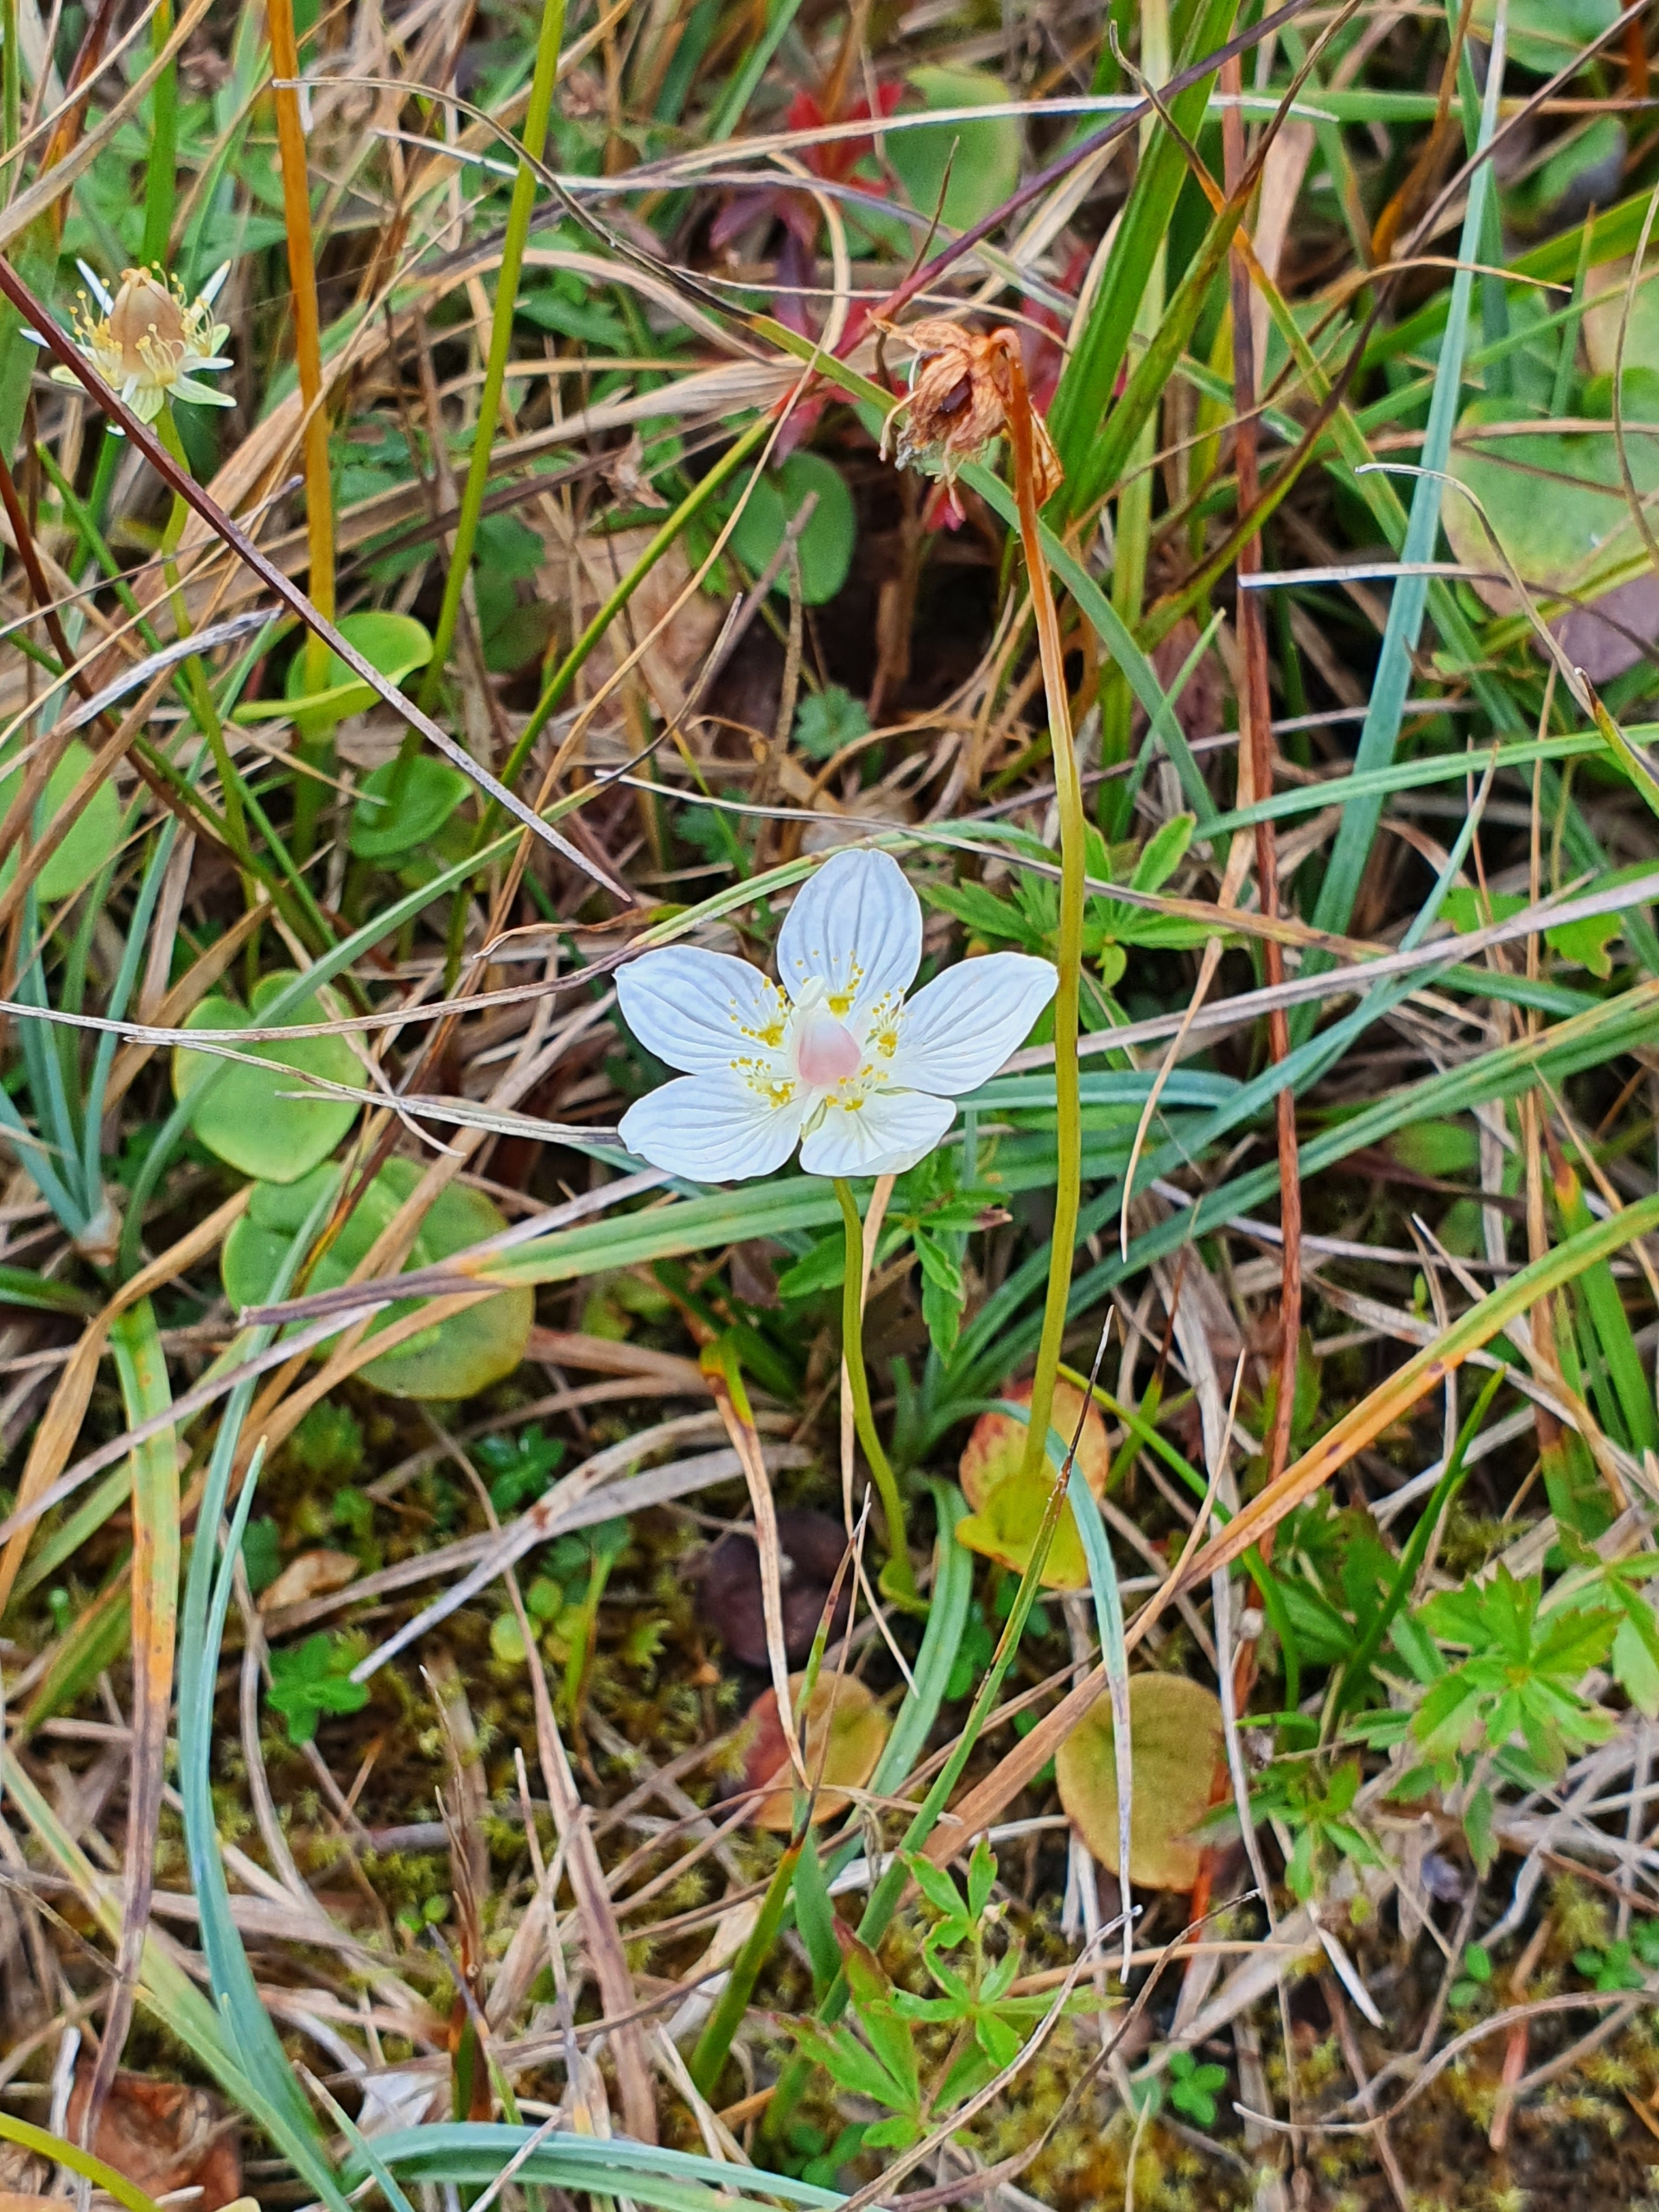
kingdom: Plantae
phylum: Tracheophyta
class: Magnoliopsida
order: Celastrales
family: Parnassiaceae
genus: Parnassia
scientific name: Parnassia palustris
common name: Leverurt
